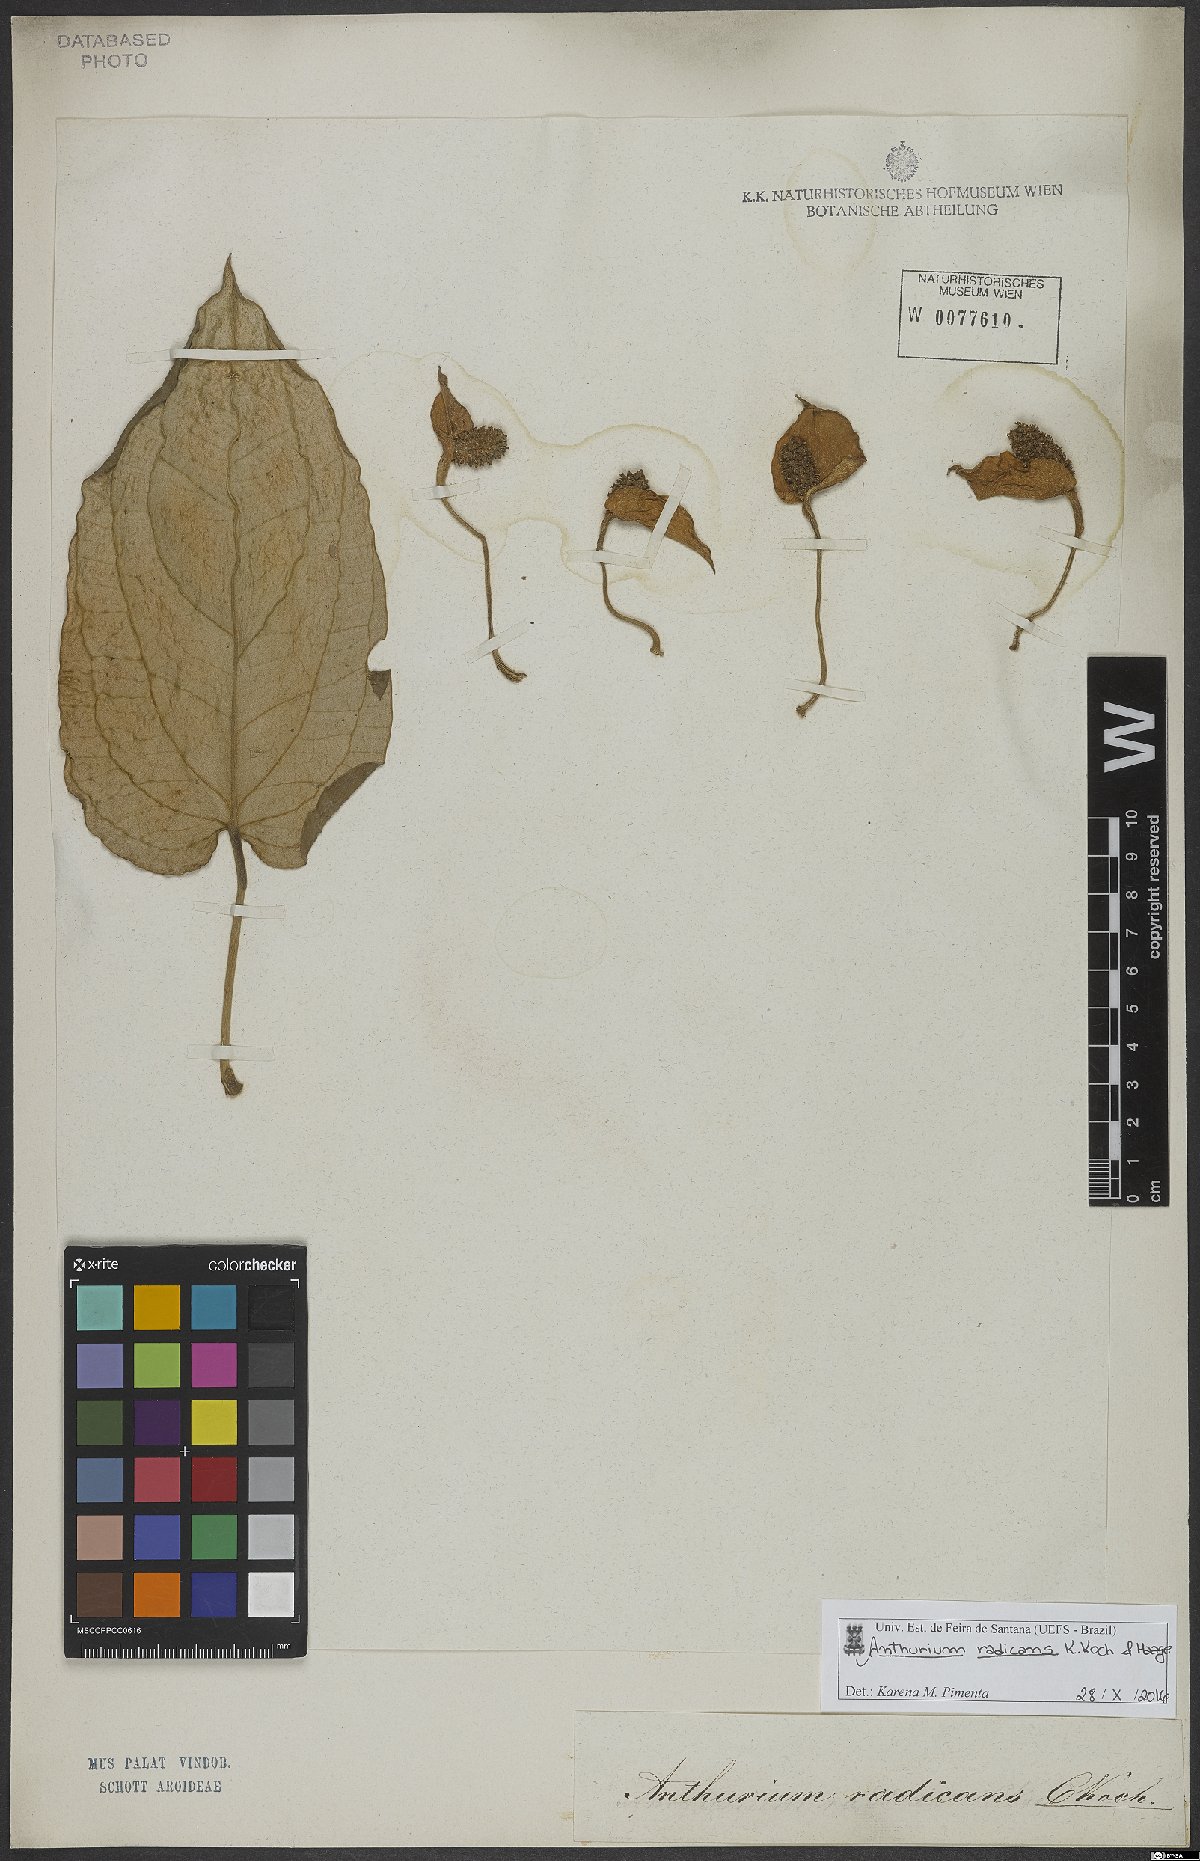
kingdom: Plantae
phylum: Tracheophyta
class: Liliopsida
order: Alismatales
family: Araceae
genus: Anthurium
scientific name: Anthurium radicans
